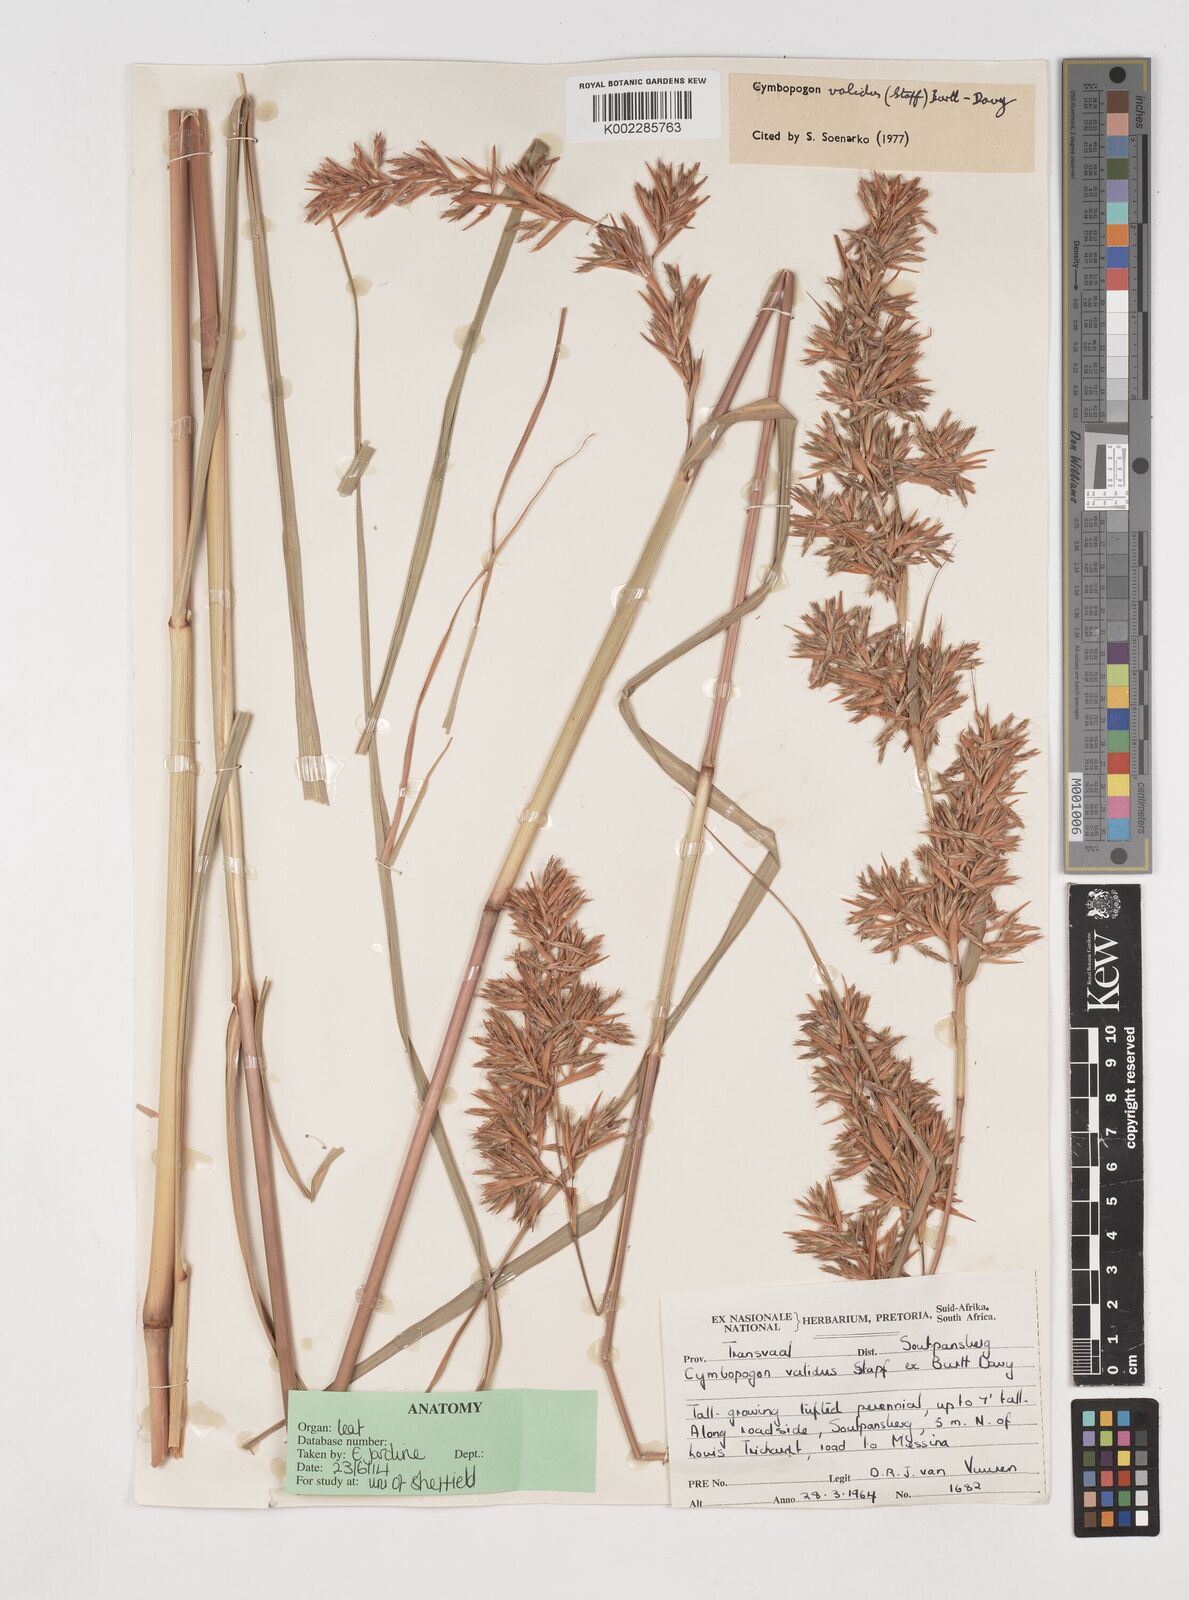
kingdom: Plantae
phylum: Tracheophyta
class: Liliopsida
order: Poales
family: Poaceae
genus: Cymbopogon
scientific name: Cymbopogon nardus
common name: Giant turpentine grass
